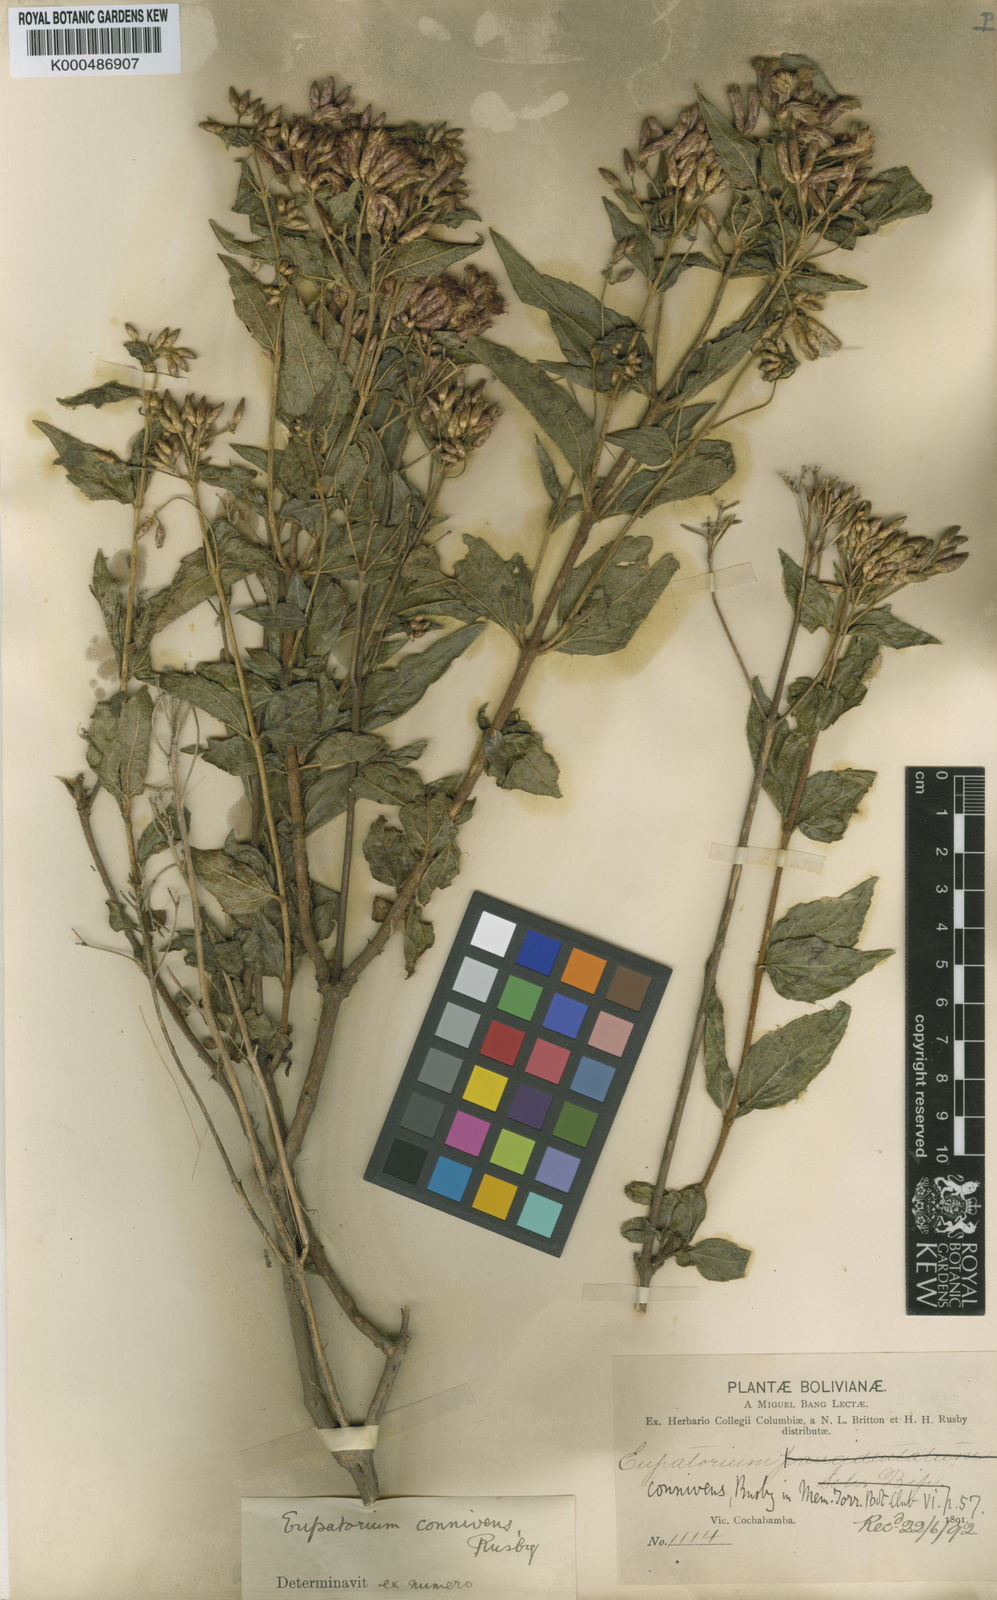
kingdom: Plantae
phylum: Tracheophyta
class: Magnoliopsida
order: Asterales
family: Asteraceae
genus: Chromolaena
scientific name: Chromolaena connivens
